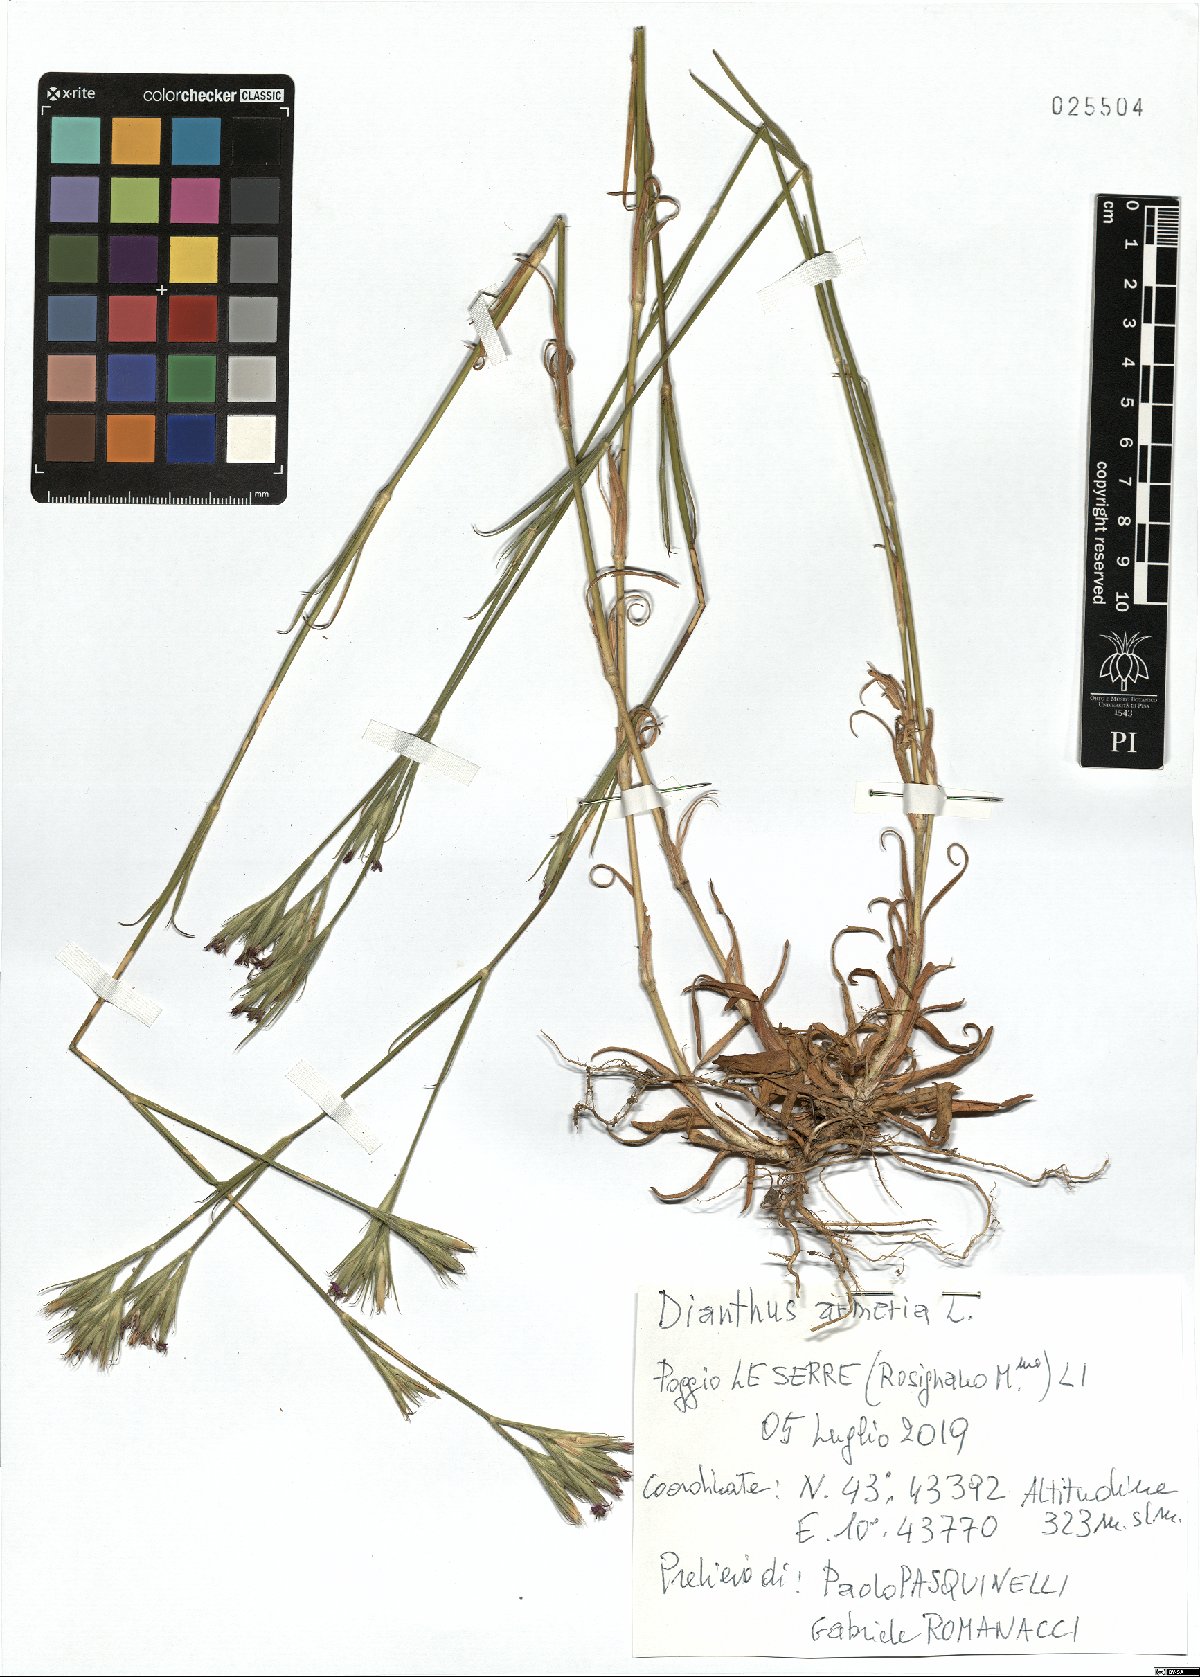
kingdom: Plantae
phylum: Tracheophyta
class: Magnoliopsida
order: Caryophyllales
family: Caryophyllaceae
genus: Dianthus
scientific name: Dianthus armeria
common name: Deptford pink
